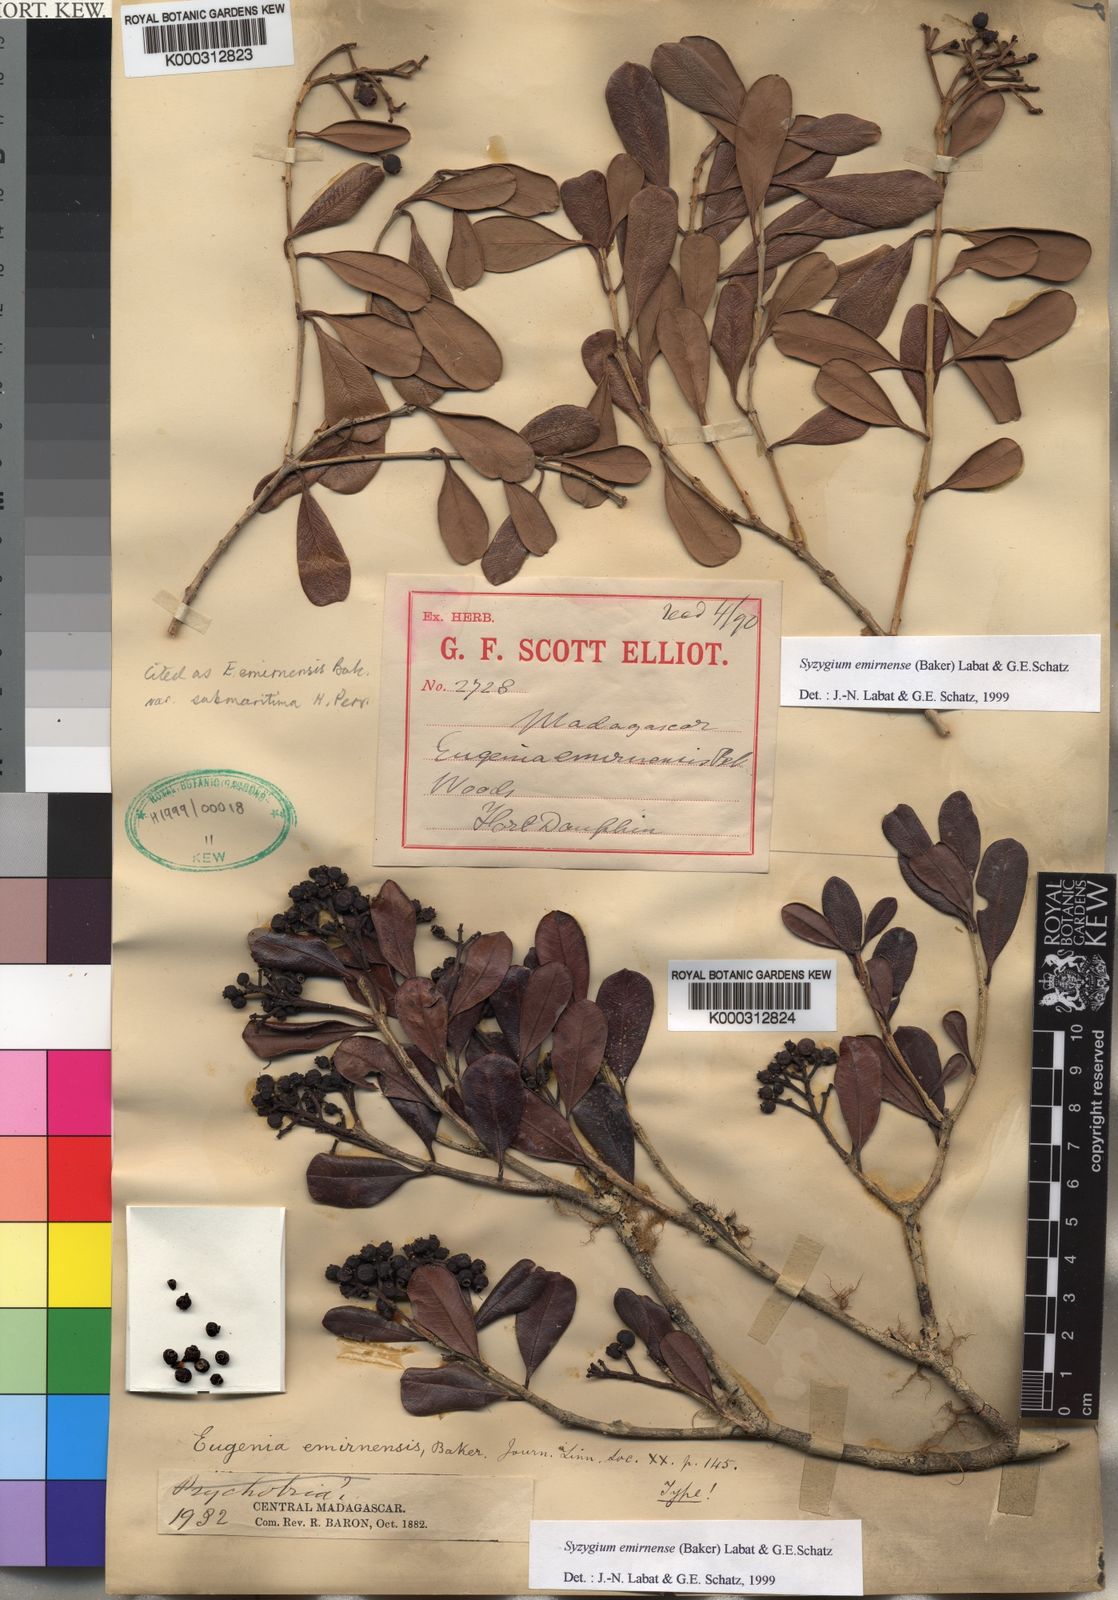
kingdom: Plantae
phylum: Tracheophyta
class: Magnoliopsida
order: Myrtales
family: Myrtaceae
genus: Syzygium
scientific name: Syzygium emirnense
